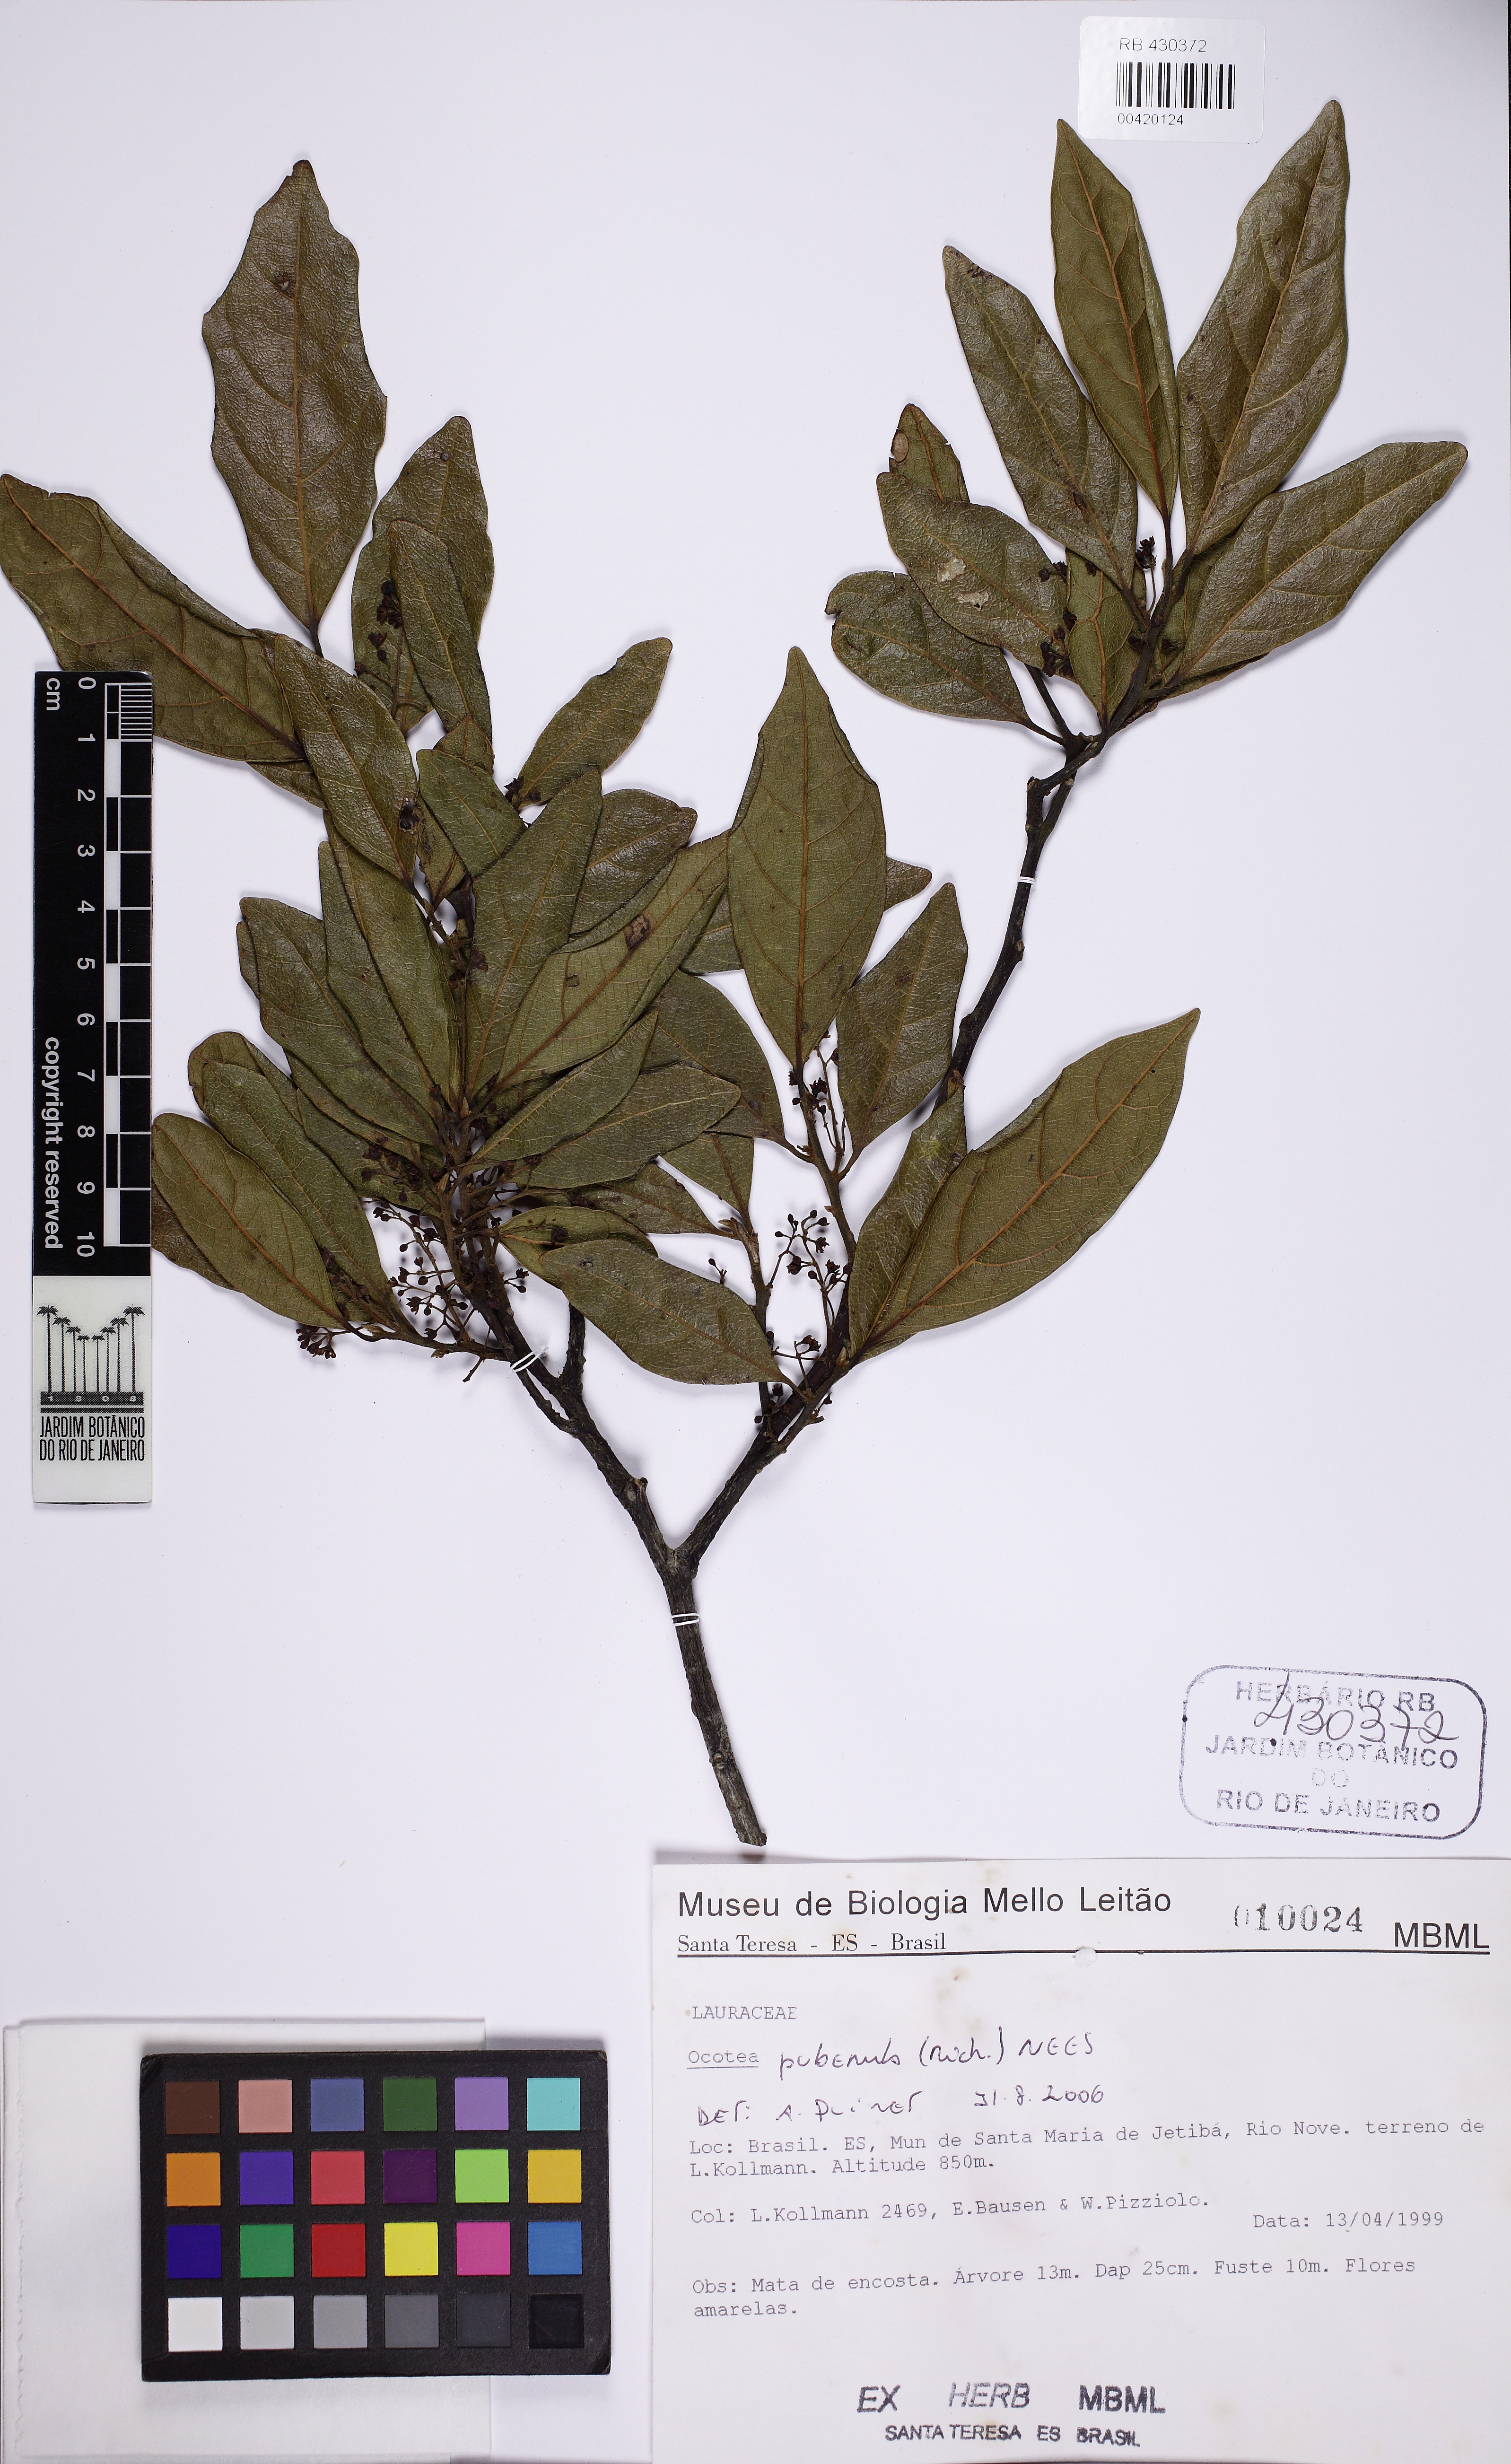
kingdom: Plantae
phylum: Tracheophyta
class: Magnoliopsida
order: Laurales
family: Lauraceae
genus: Ocotea
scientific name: Ocotea puberula
